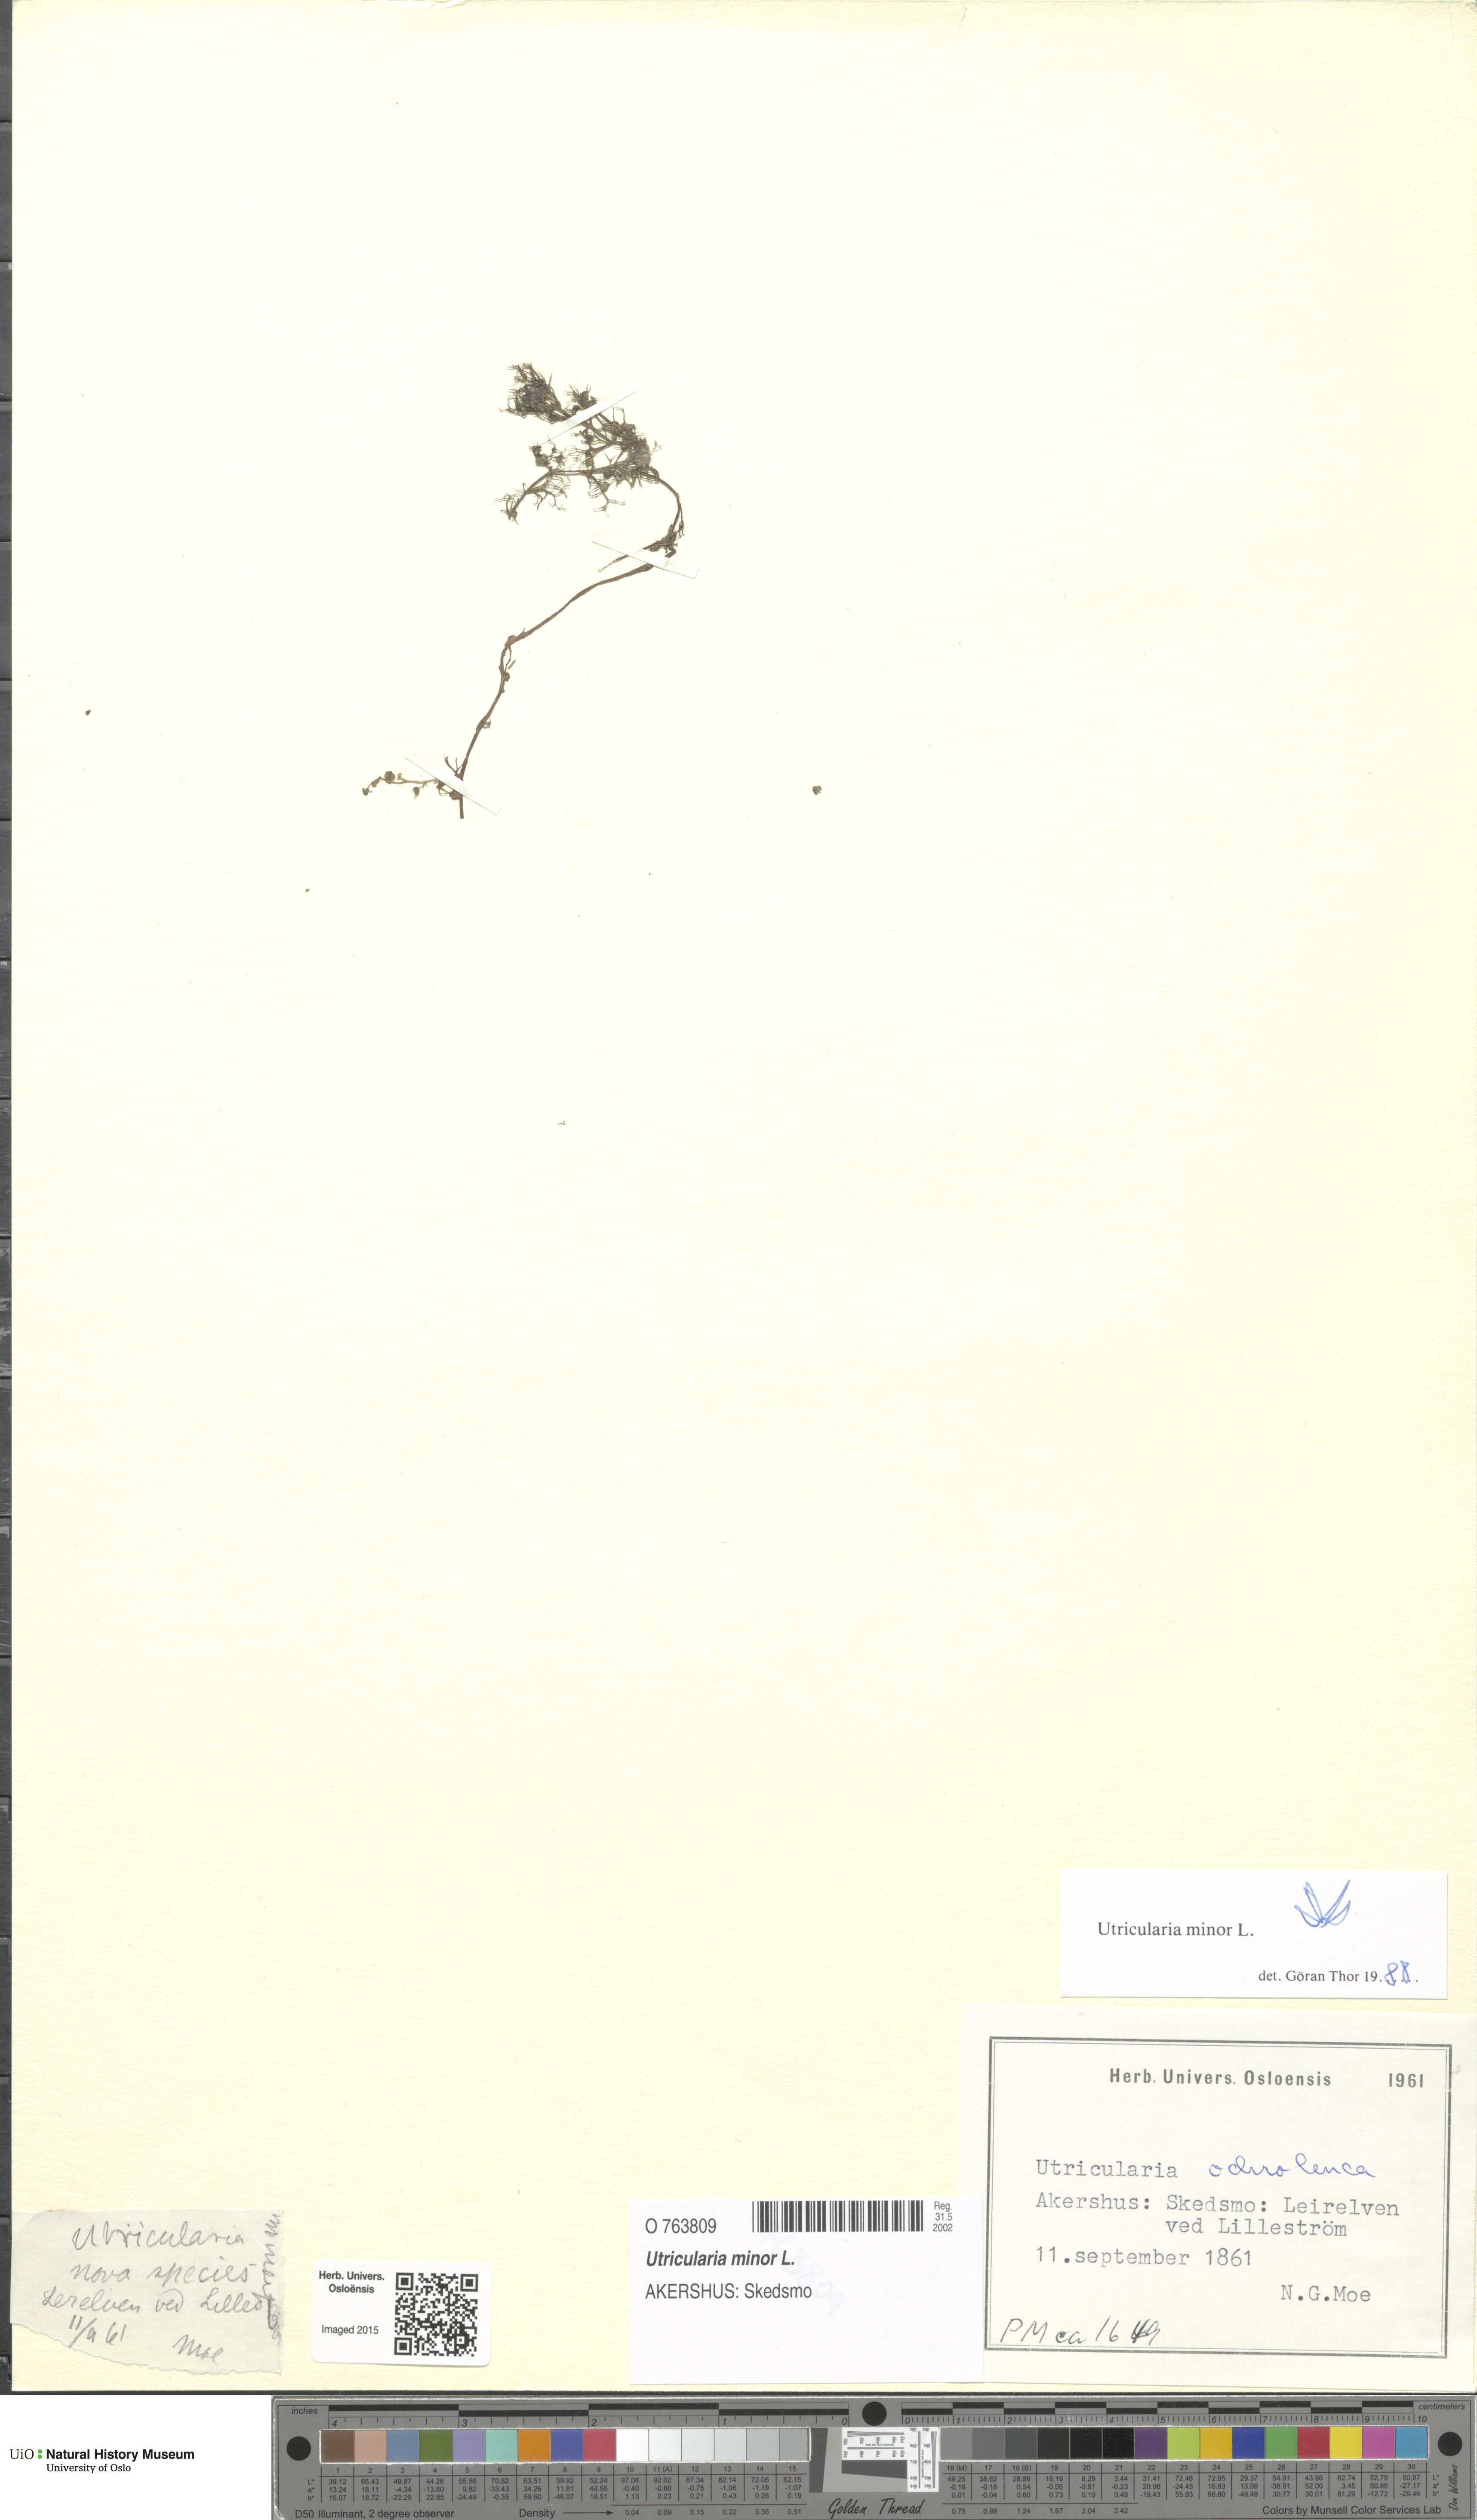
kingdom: Plantae
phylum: Tracheophyta
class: Magnoliopsida
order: Lamiales
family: Lentibulariaceae
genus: Utricularia
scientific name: Utricularia minor
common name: Lesser bladderwort
